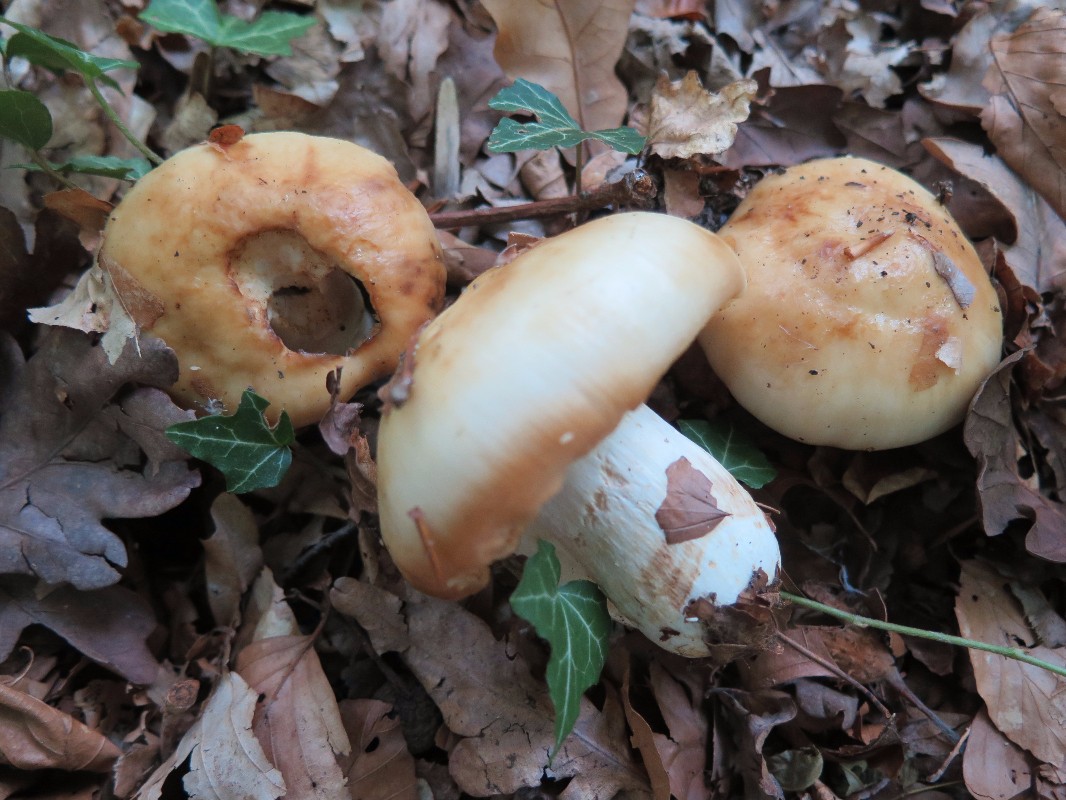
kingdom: Fungi
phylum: Basidiomycota
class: Agaricomycetes
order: Russulales
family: Russulaceae
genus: Russula
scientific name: Russula foetens
